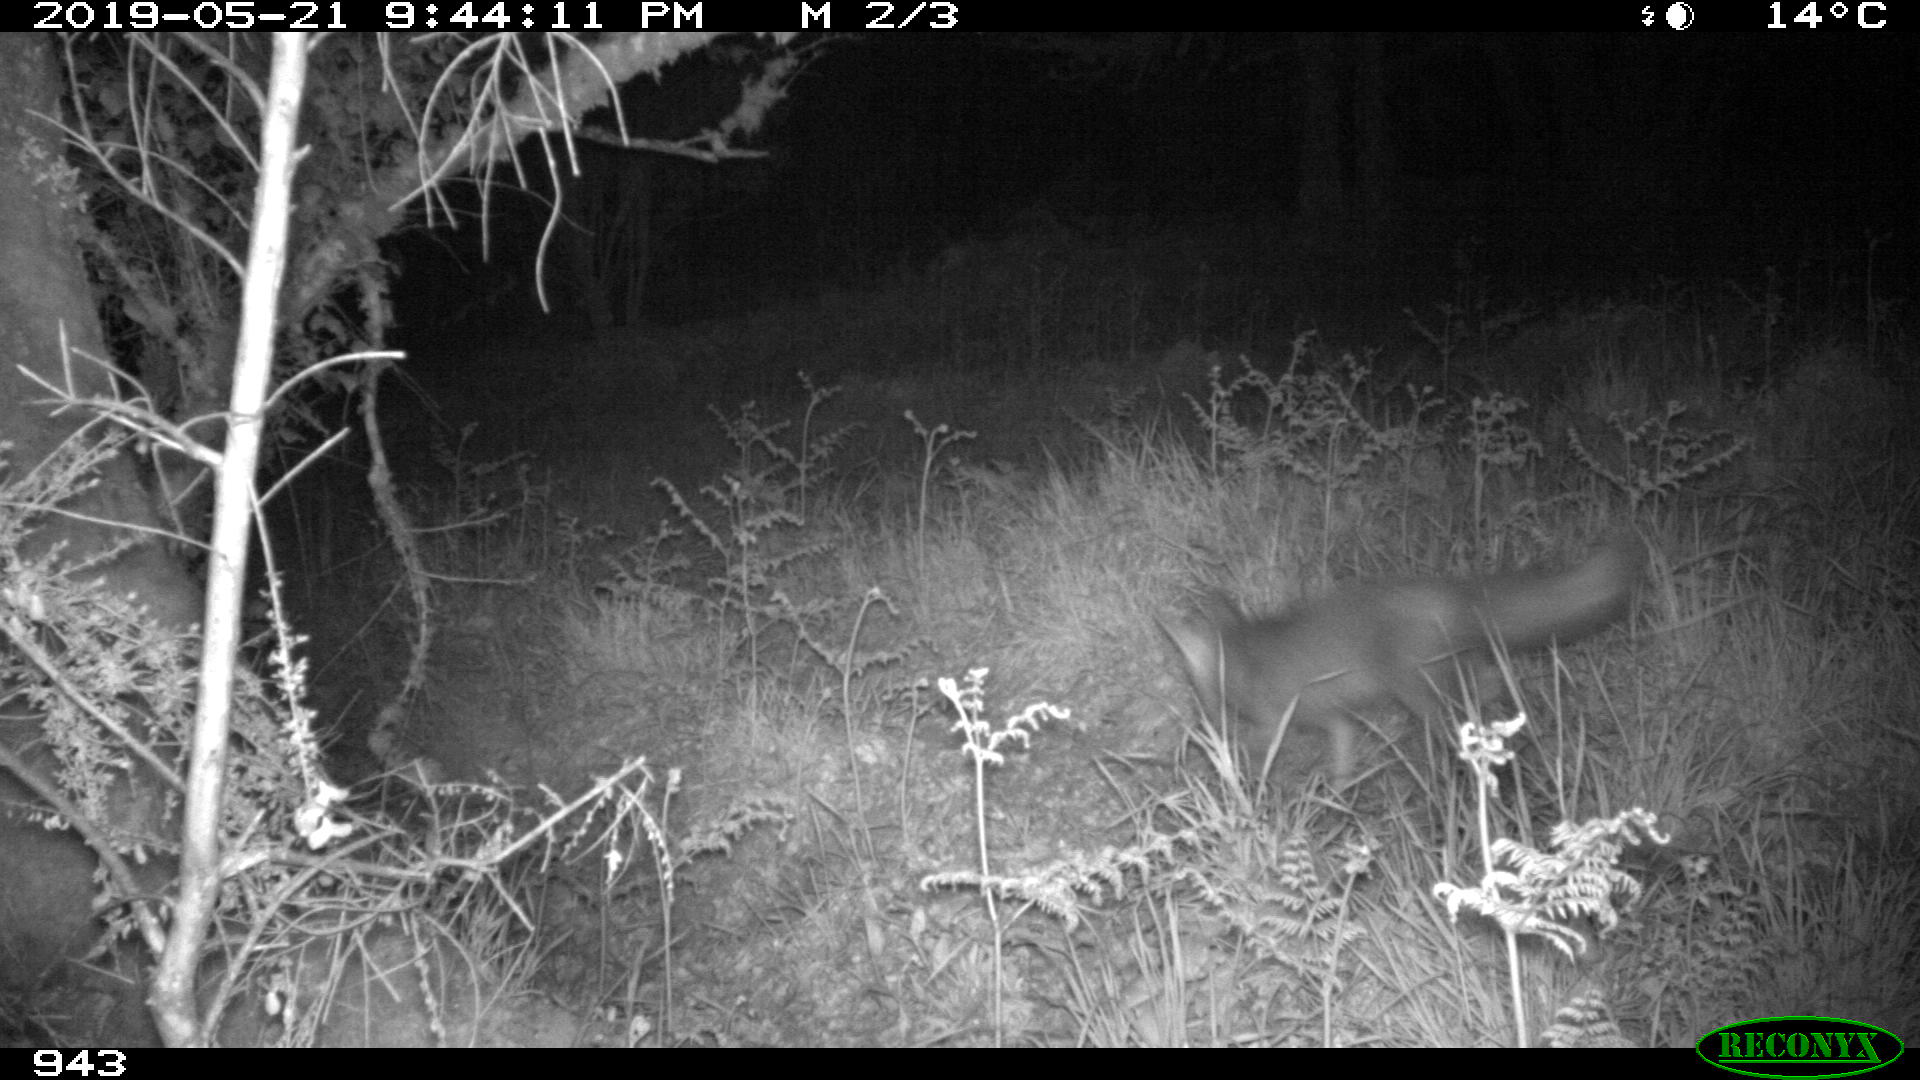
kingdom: Animalia
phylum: Chordata
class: Mammalia
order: Carnivora
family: Canidae
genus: Vulpes
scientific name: Vulpes vulpes
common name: Red fox
